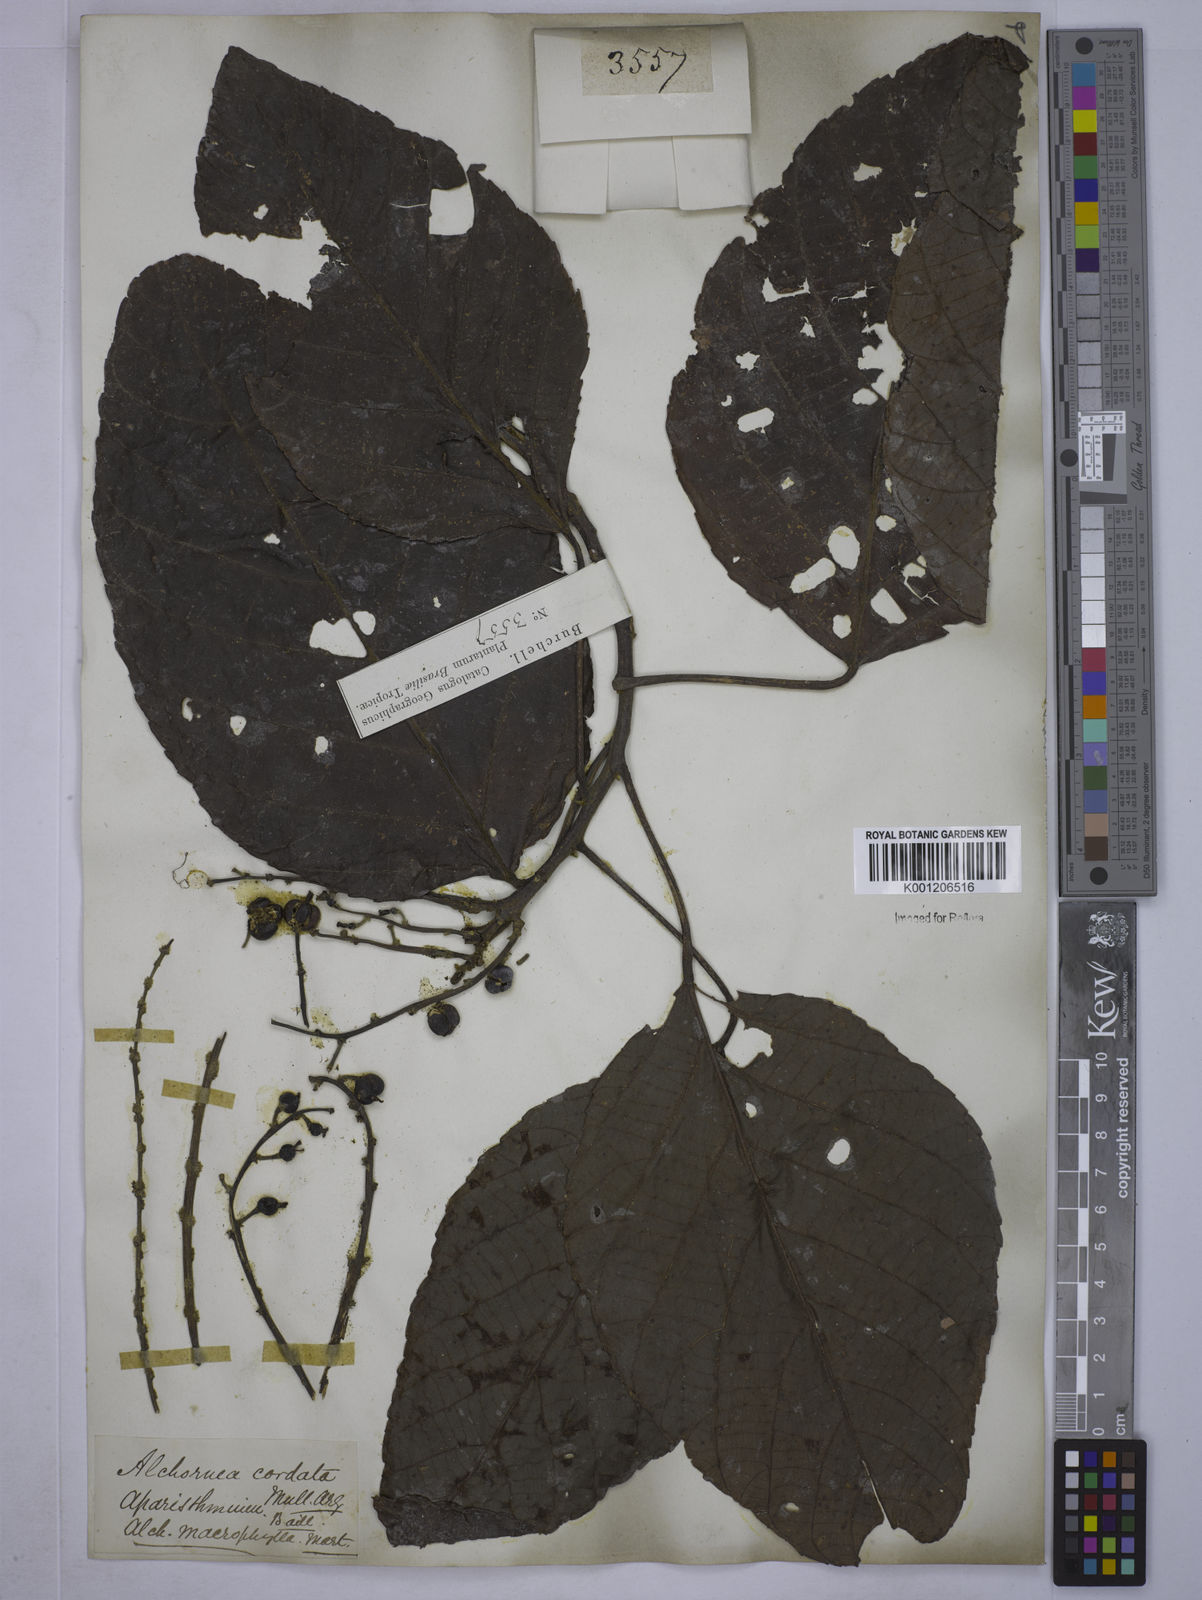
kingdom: Plantae
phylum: Tracheophyta
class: Magnoliopsida
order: Malpighiales
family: Euphorbiaceae
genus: Aparisthmium
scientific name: Aparisthmium cordatum
